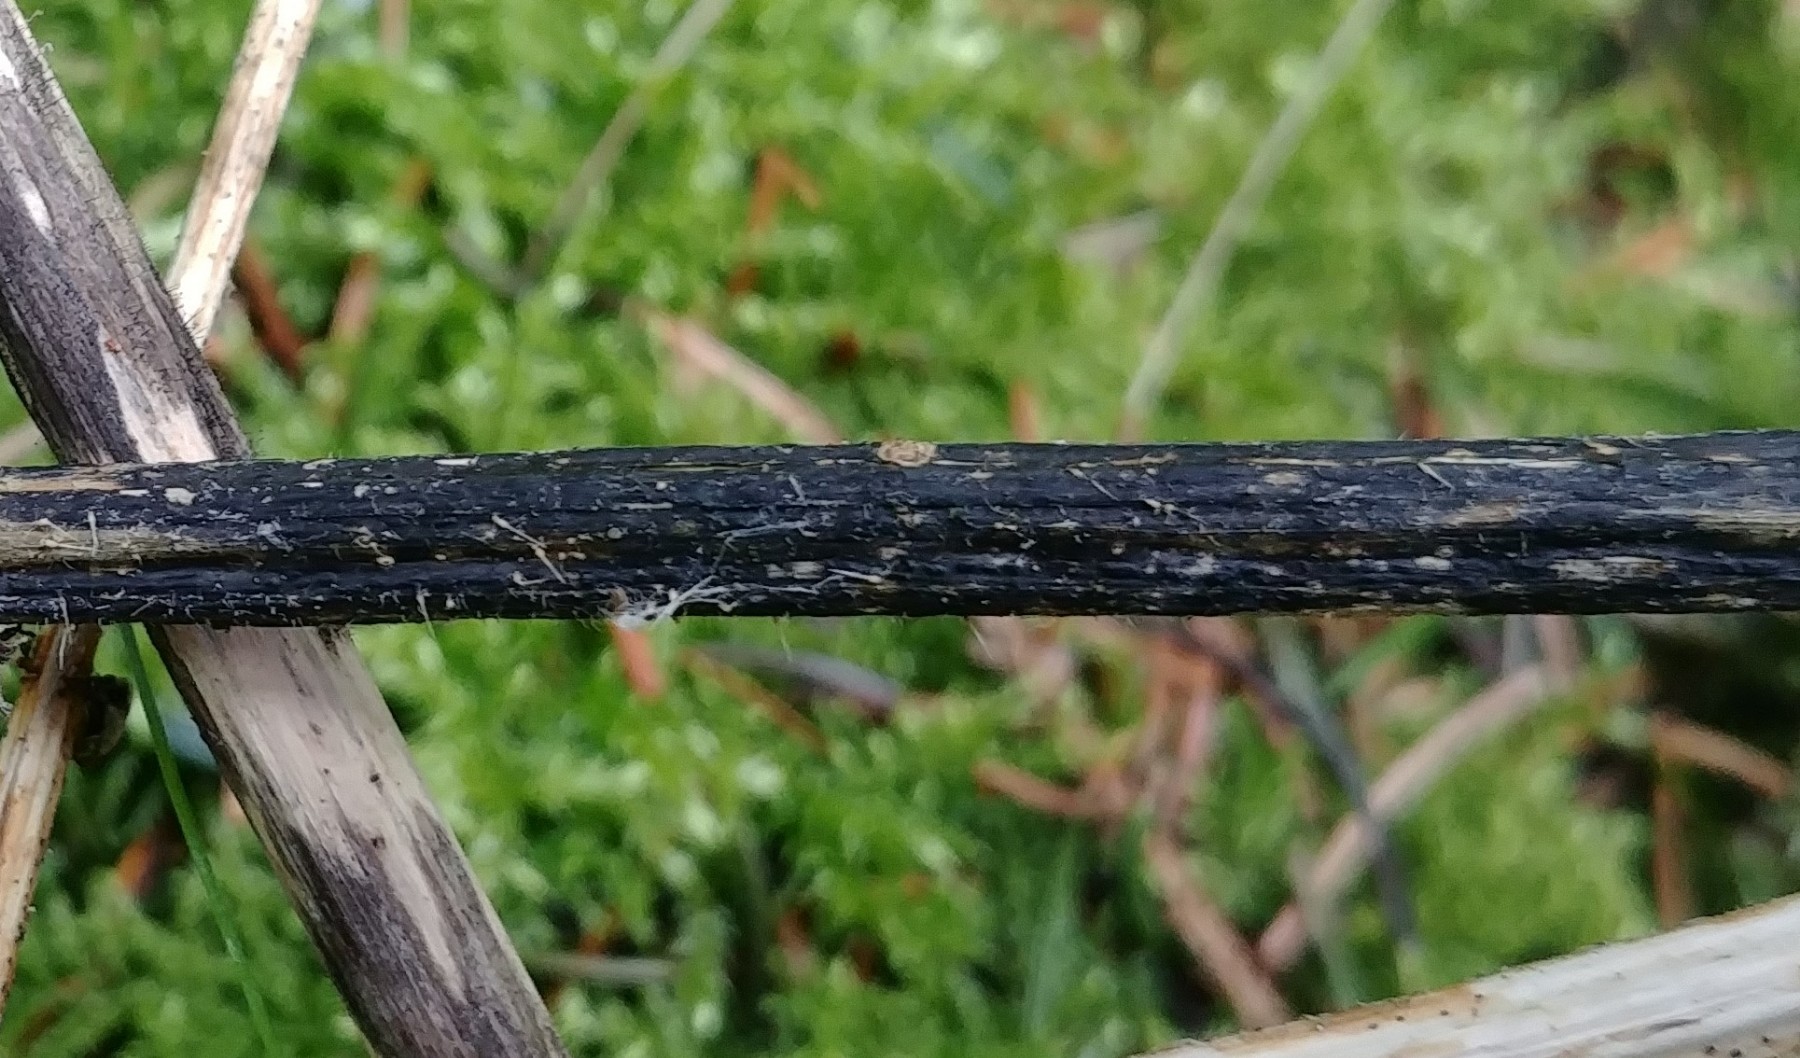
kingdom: Fungi
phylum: Ascomycota
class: Sordariomycetes
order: Diaporthales
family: Diaporthaceae
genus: Diaporthopsis
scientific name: Diaporthopsis urticae
